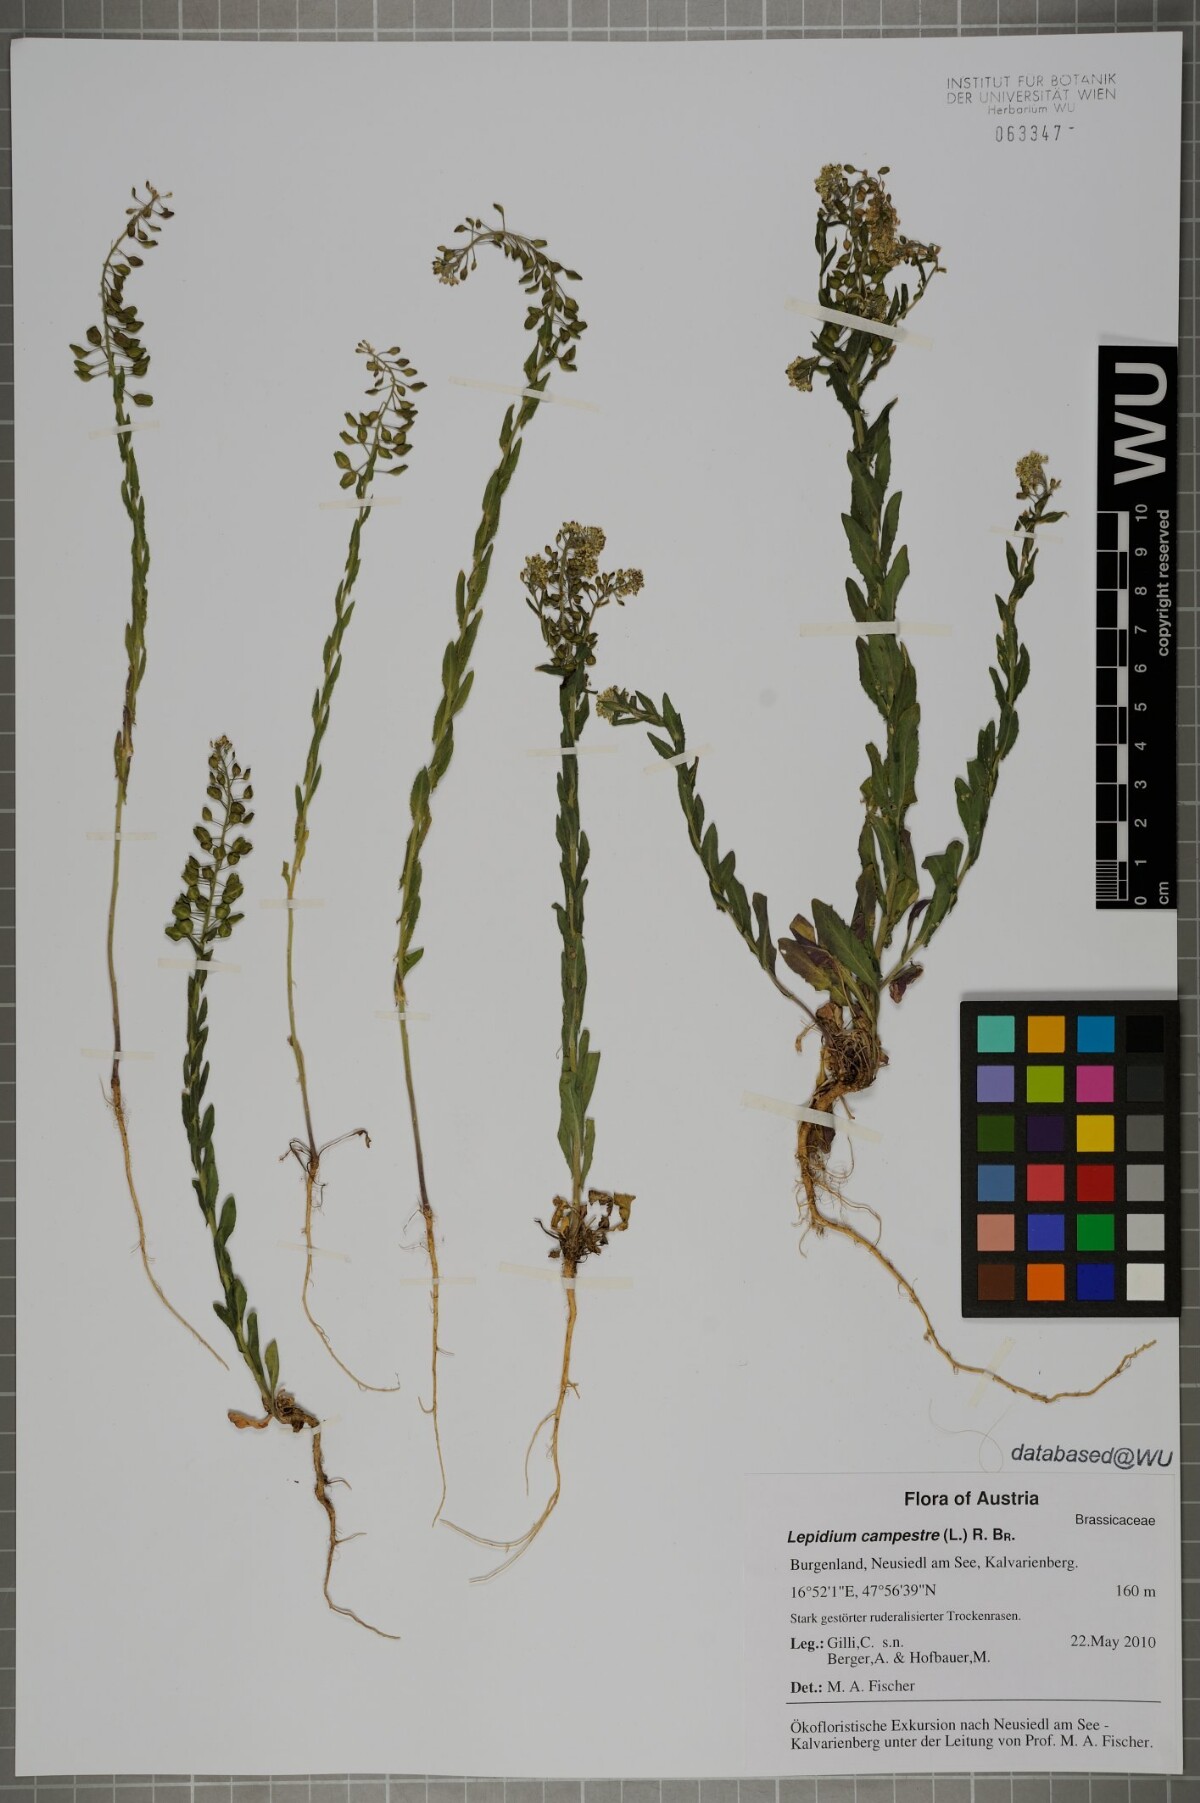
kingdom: Plantae
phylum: Tracheophyta
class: Magnoliopsida
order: Brassicales
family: Brassicaceae
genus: Lepidium
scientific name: Lepidium campestre
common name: Field pepperwort
